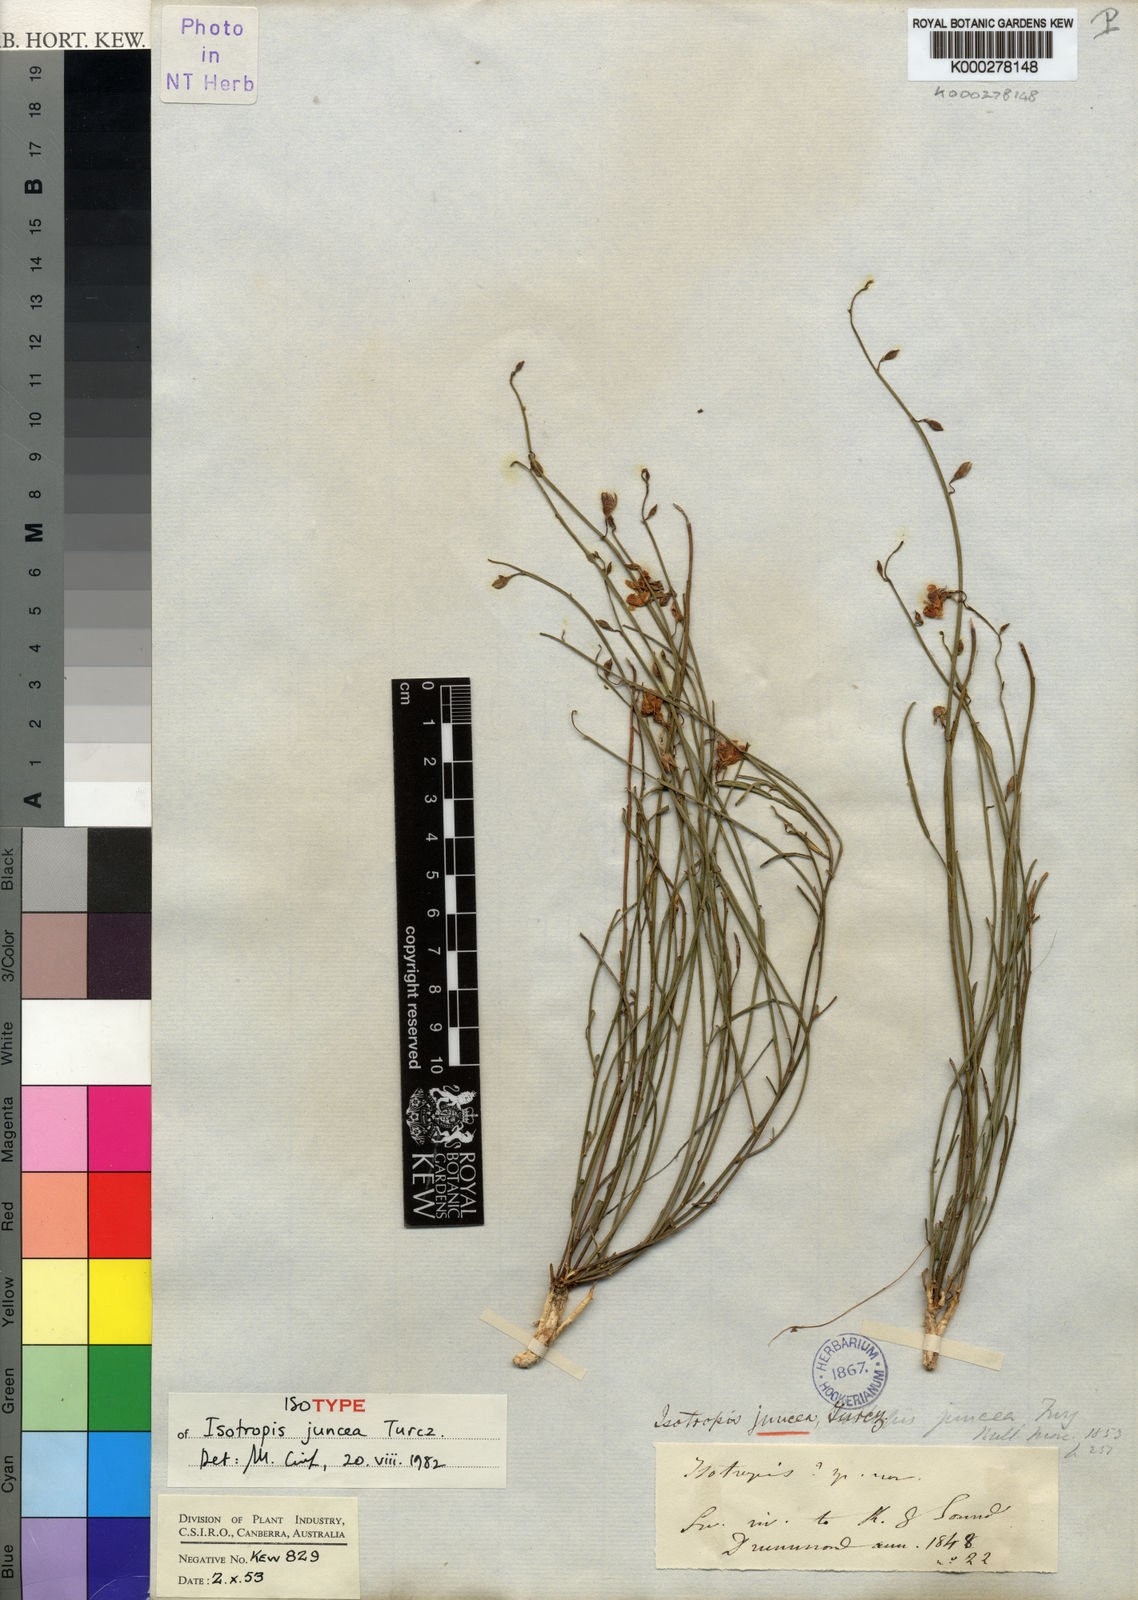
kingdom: Plantae
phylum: Tracheophyta
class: Magnoliopsida
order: Fabales
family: Fabaceae
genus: Isotropis
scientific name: Isotropis juncea
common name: Slender lamb-poison
